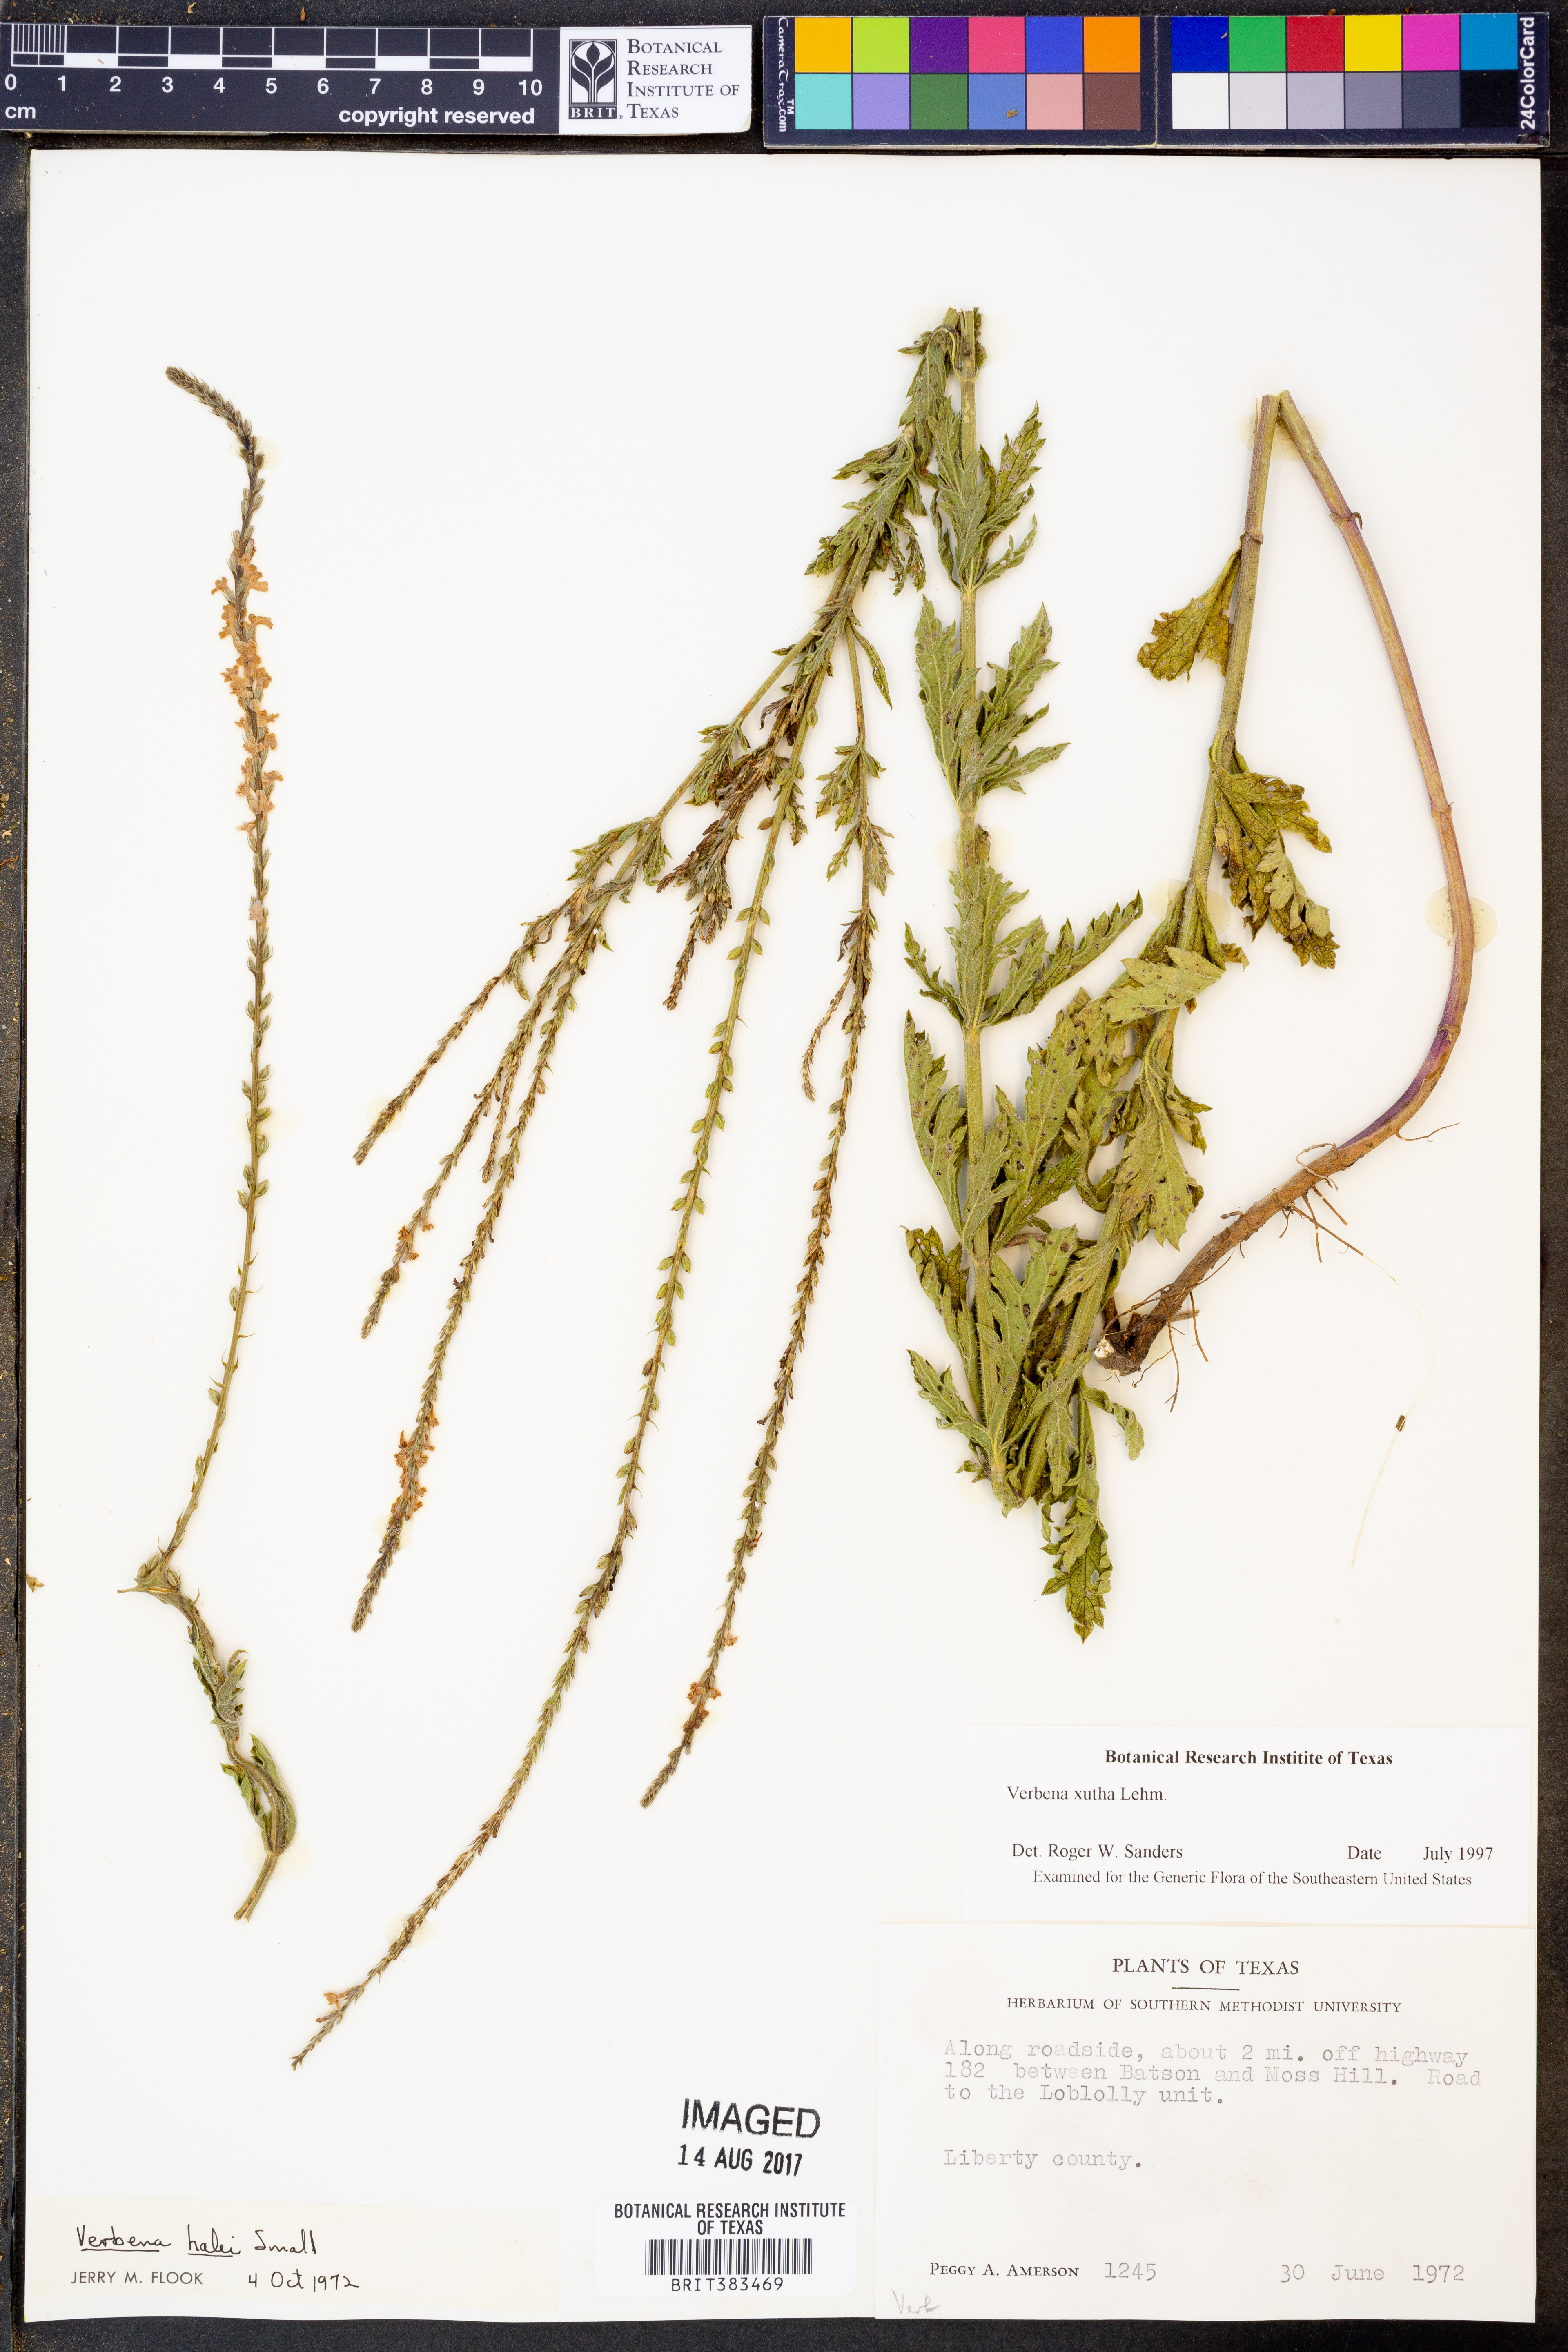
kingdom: Plantae
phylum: Tracheophyta
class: Magnoliopsida
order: Lamiales
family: Verbenaceae
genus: Verbena
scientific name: Verbena xutha
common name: Gulf vervain
